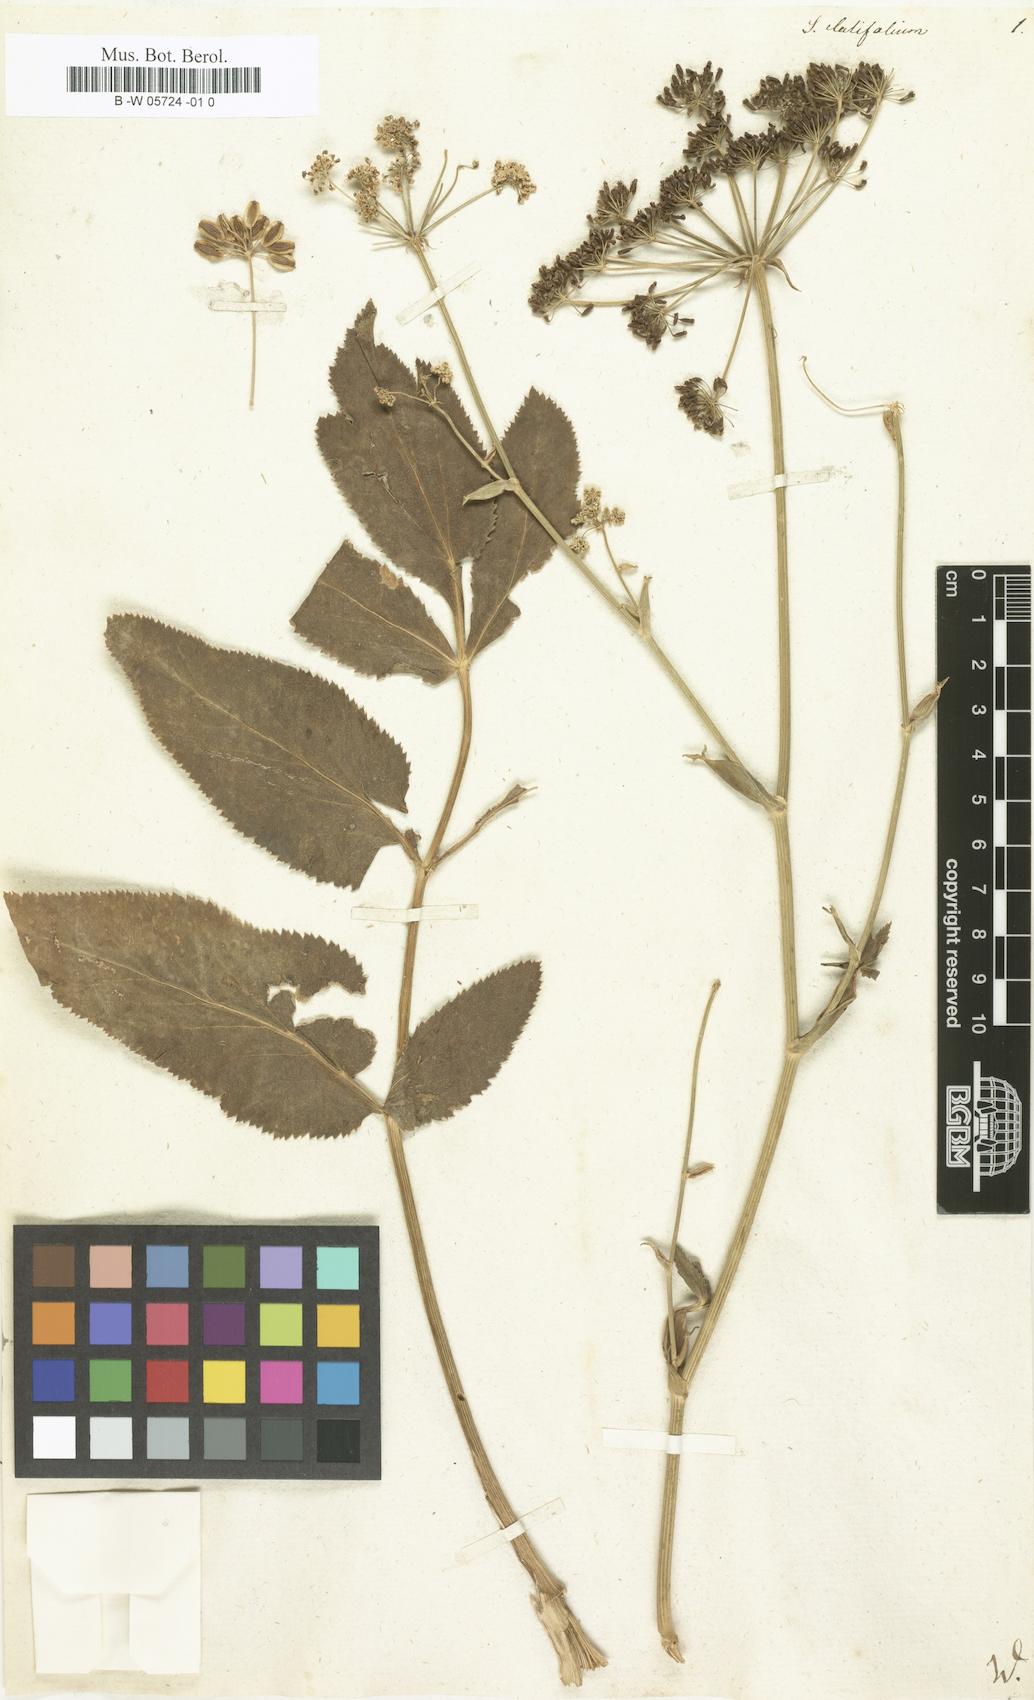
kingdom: Plantae
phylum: Tracheophyta
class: Magnoliopsida
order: Apiales
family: Apiaceae
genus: Macroselinum
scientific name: Macroselinum latifolium
